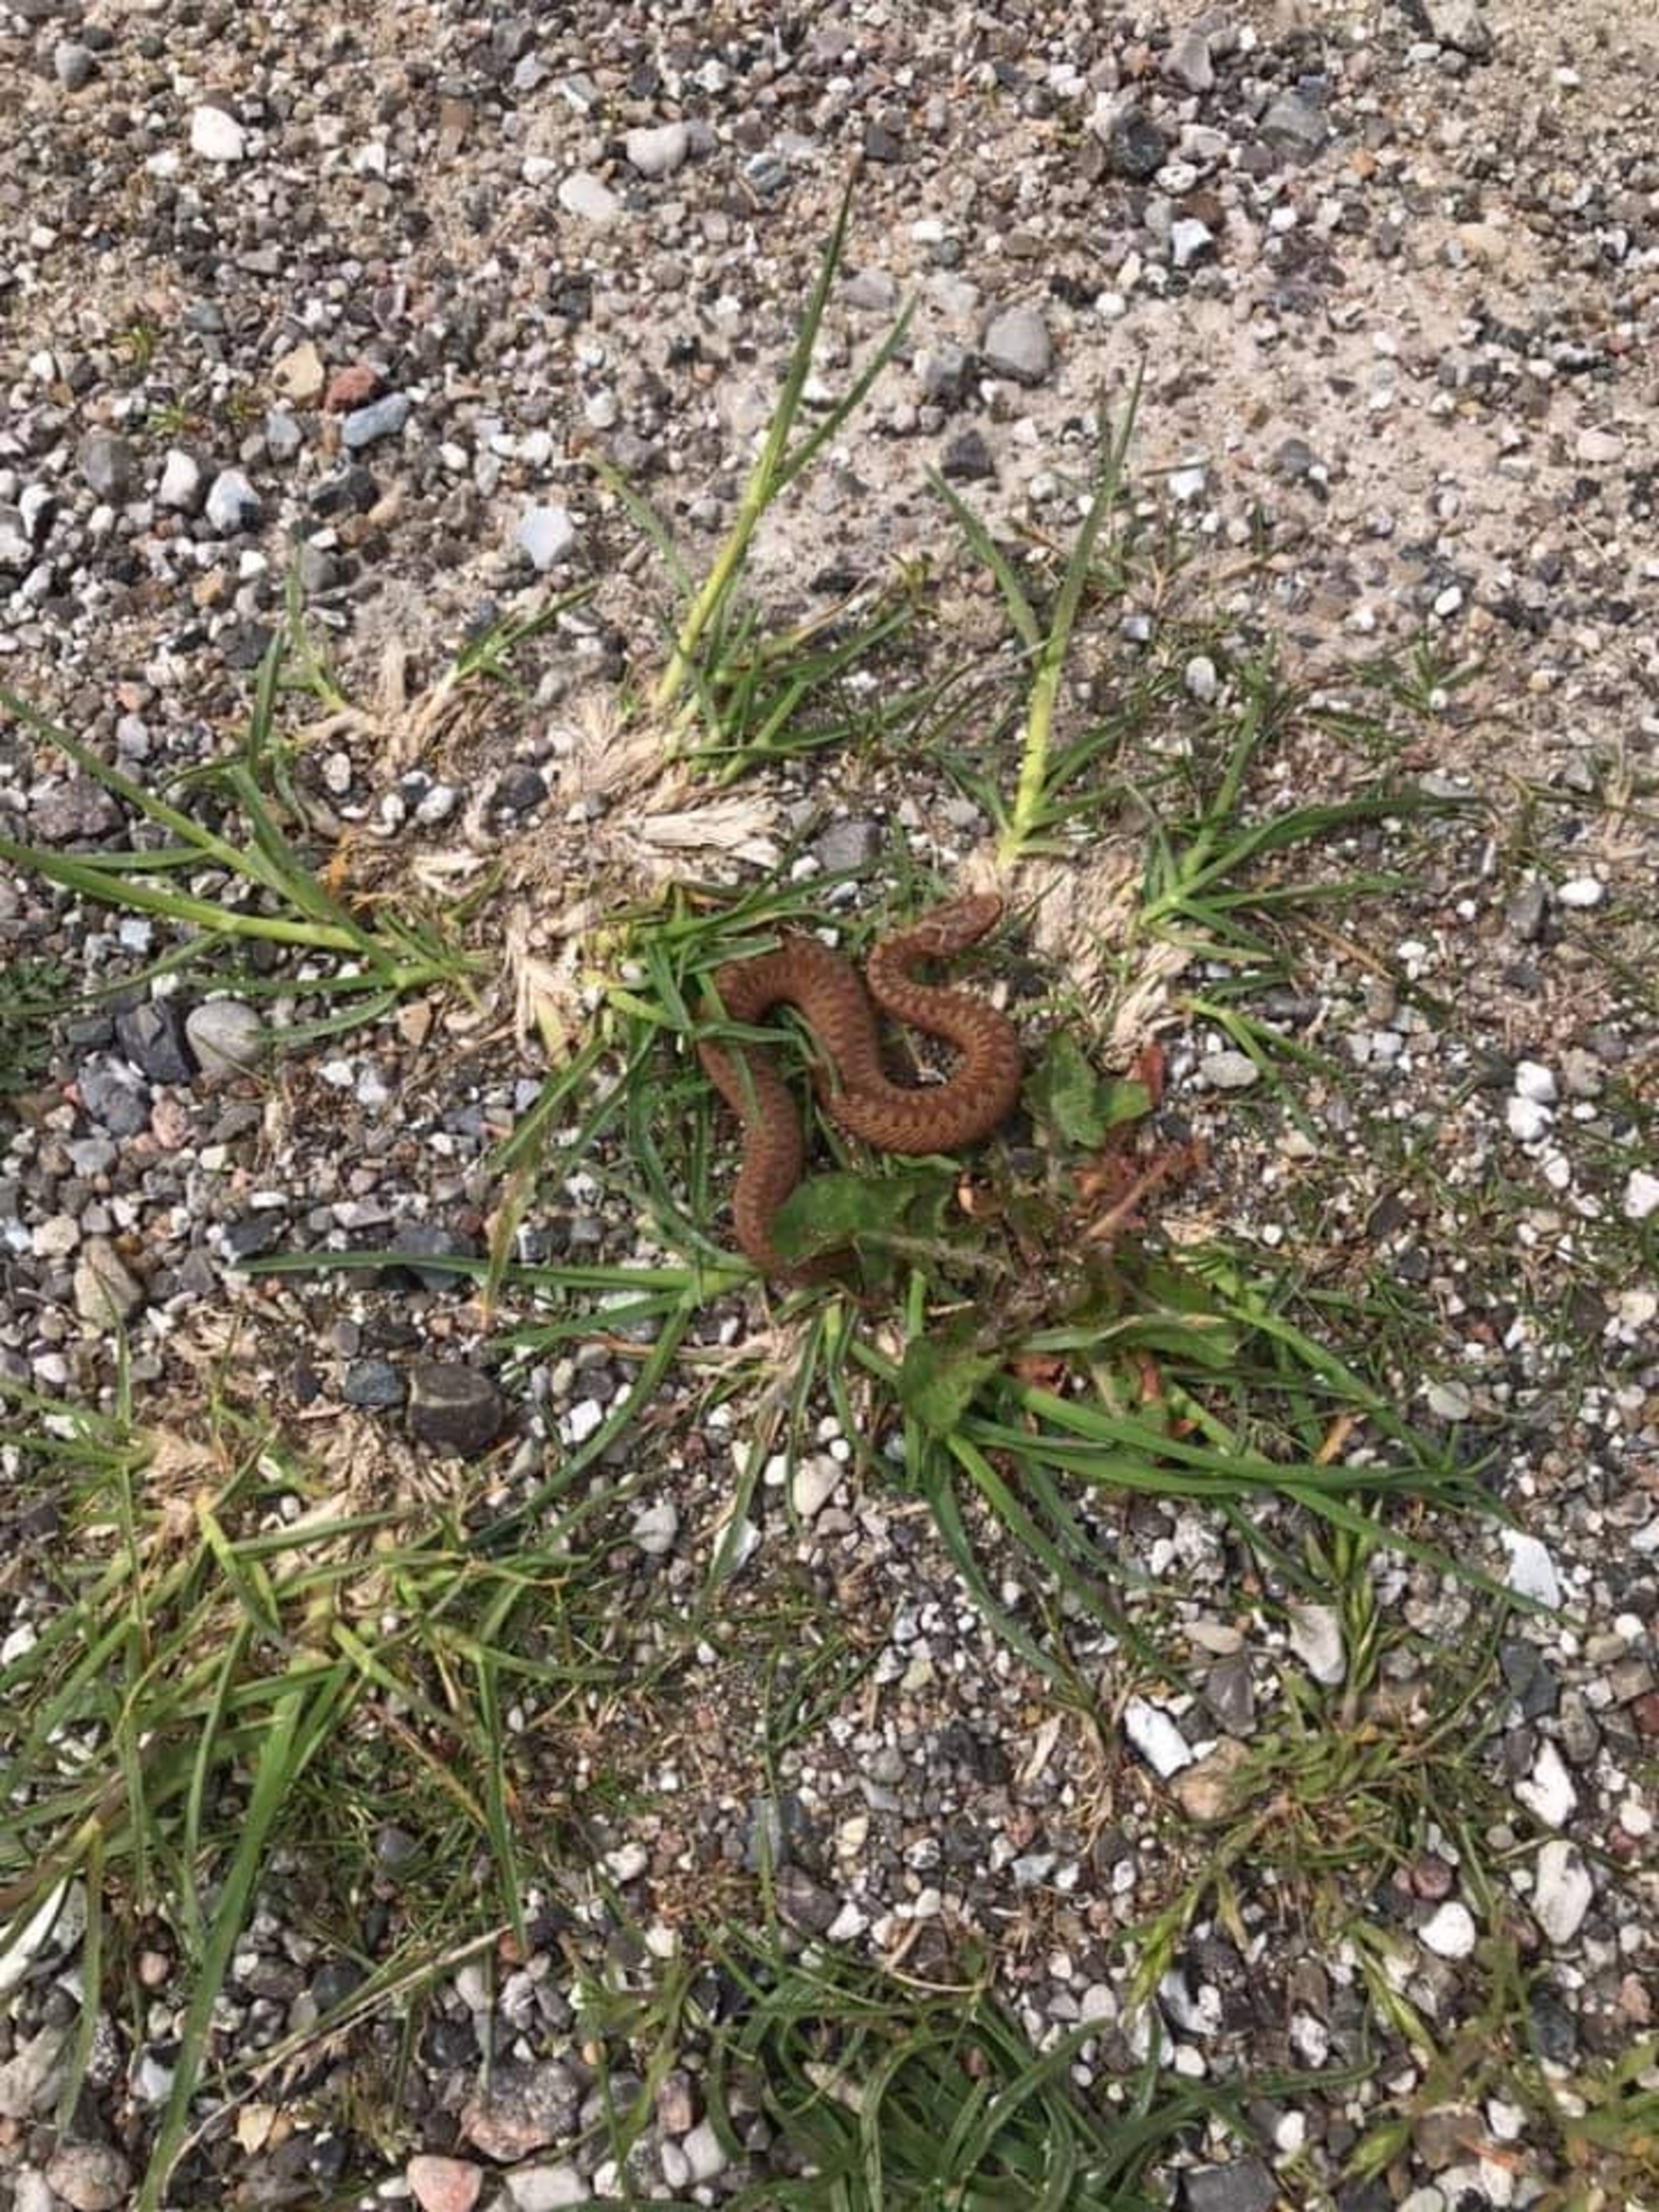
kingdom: Animalia
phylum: Chordata
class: Squamata
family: Viperidae
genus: Vipera
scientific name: Vipera berus
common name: Hugorm
